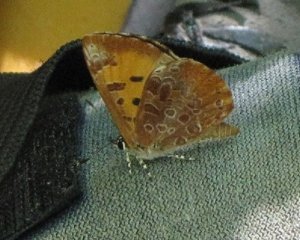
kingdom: Animalia
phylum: Arthropoda
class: Insecta
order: Lepidoptera
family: Lycaenidae
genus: Feniseca
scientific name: Feniseca tarquinius
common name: Harvester
